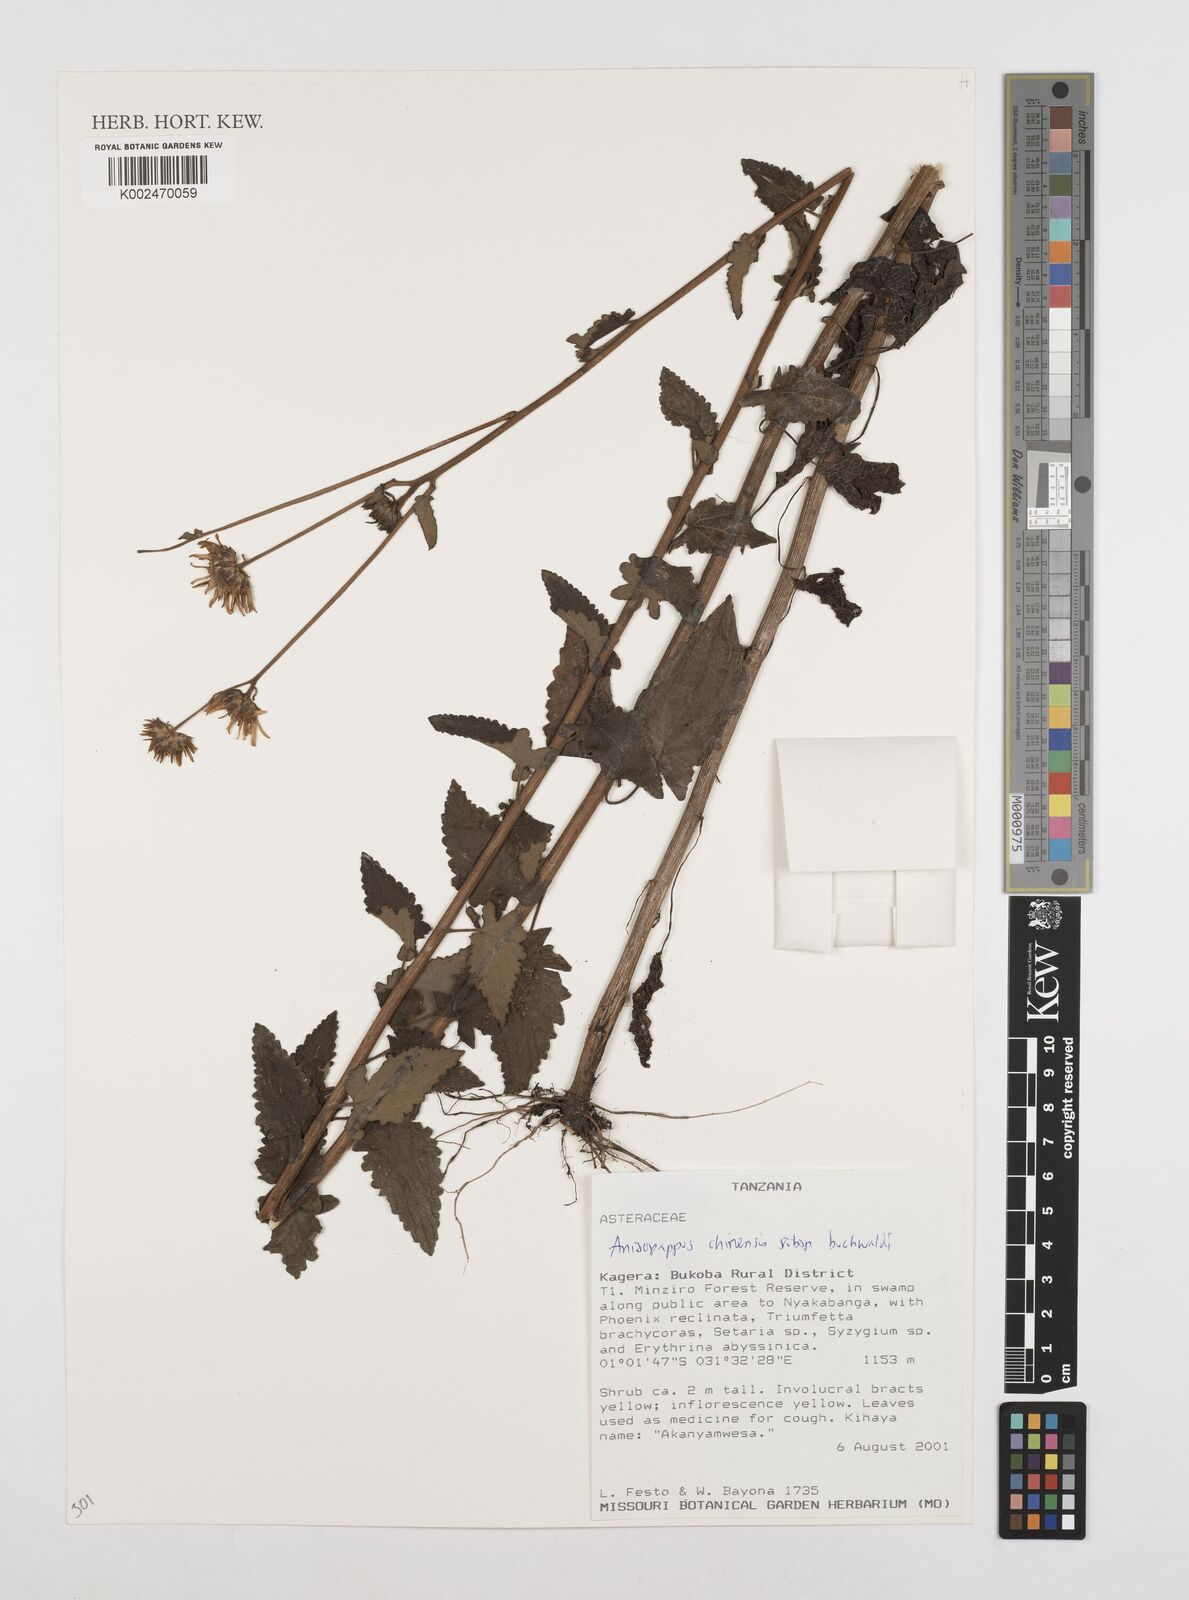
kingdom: Plantae
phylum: Tracheophyta
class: Magnoliopsida
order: Asterales
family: Asteraceae
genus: Anisopappus
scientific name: Anisopappus buchwaldii
